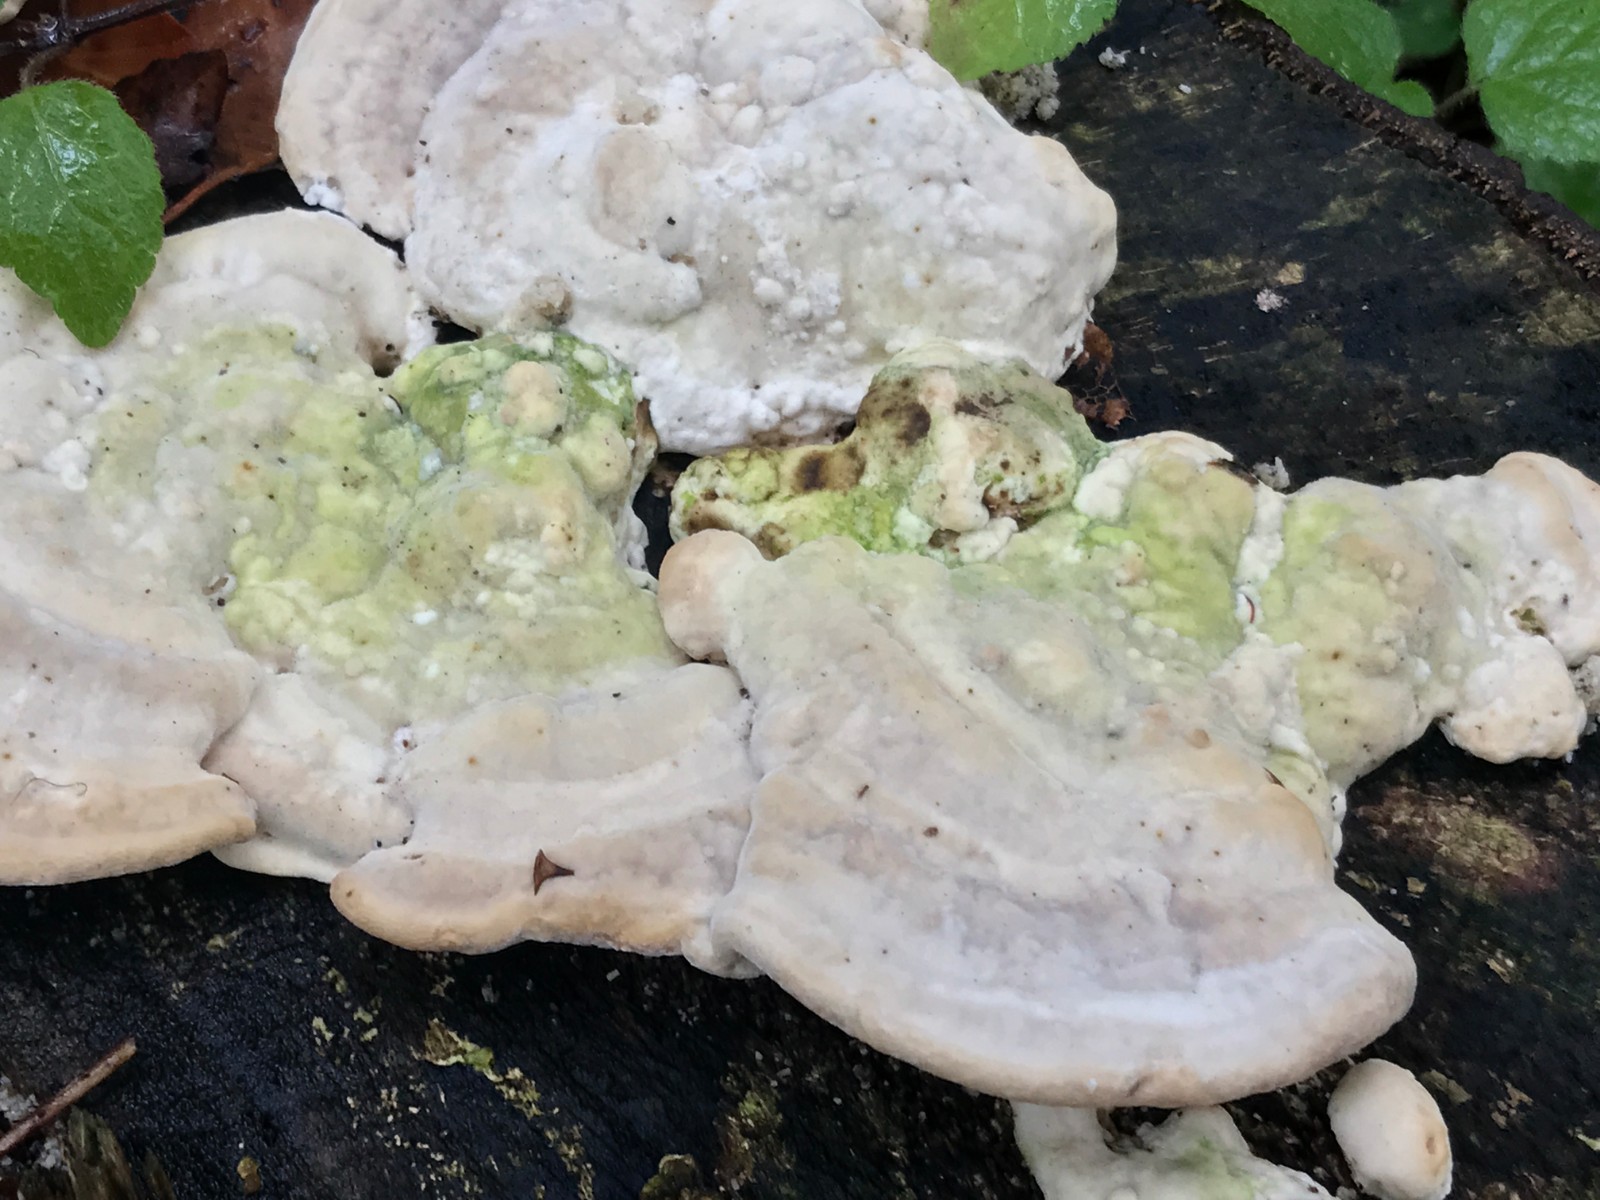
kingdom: Fungi
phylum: Basidiomycota
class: Agaricomycetes
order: Polyporales
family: Polyporaceae
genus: Trametes
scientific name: Trametes gibbosa
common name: puklet læderporesvamp
